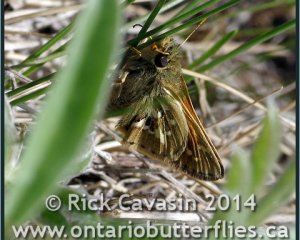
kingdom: Animalia
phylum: Arthropoda
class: Insecta
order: Lepidoptera
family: Hesperiidae
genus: Polites
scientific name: Polites sabuleti
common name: Draco Skipper
